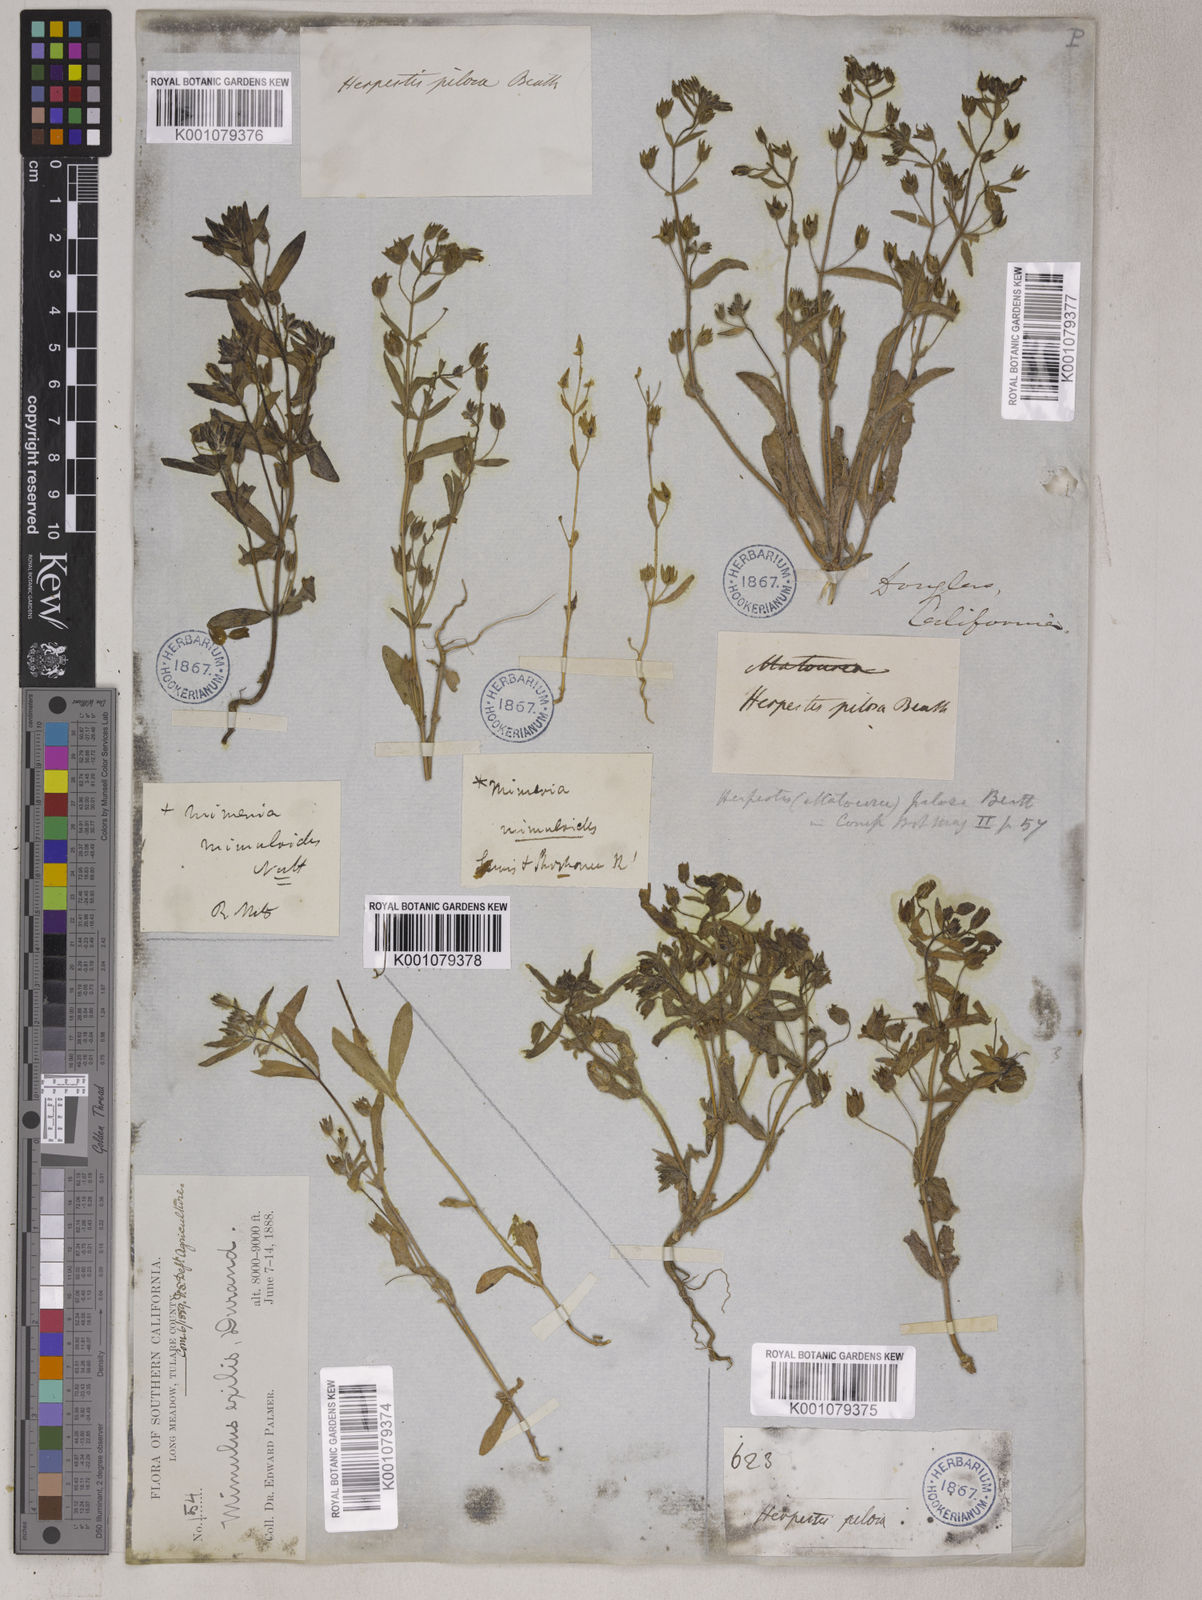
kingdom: Plantae
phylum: Tracheophyta
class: Magnoliopsida
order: Lamiales
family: Phrymaceae
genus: Mimetanthe
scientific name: Mimetanthe pilosa
